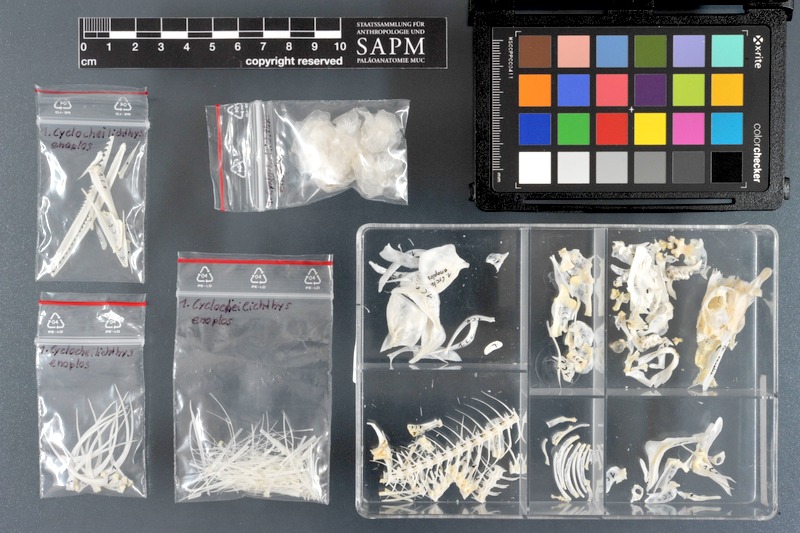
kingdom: Animalia
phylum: Chordata
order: Cypriniformes
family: Cyprinidae
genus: Cyclocheilichthys
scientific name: Cyclocheilichthys enoplos
